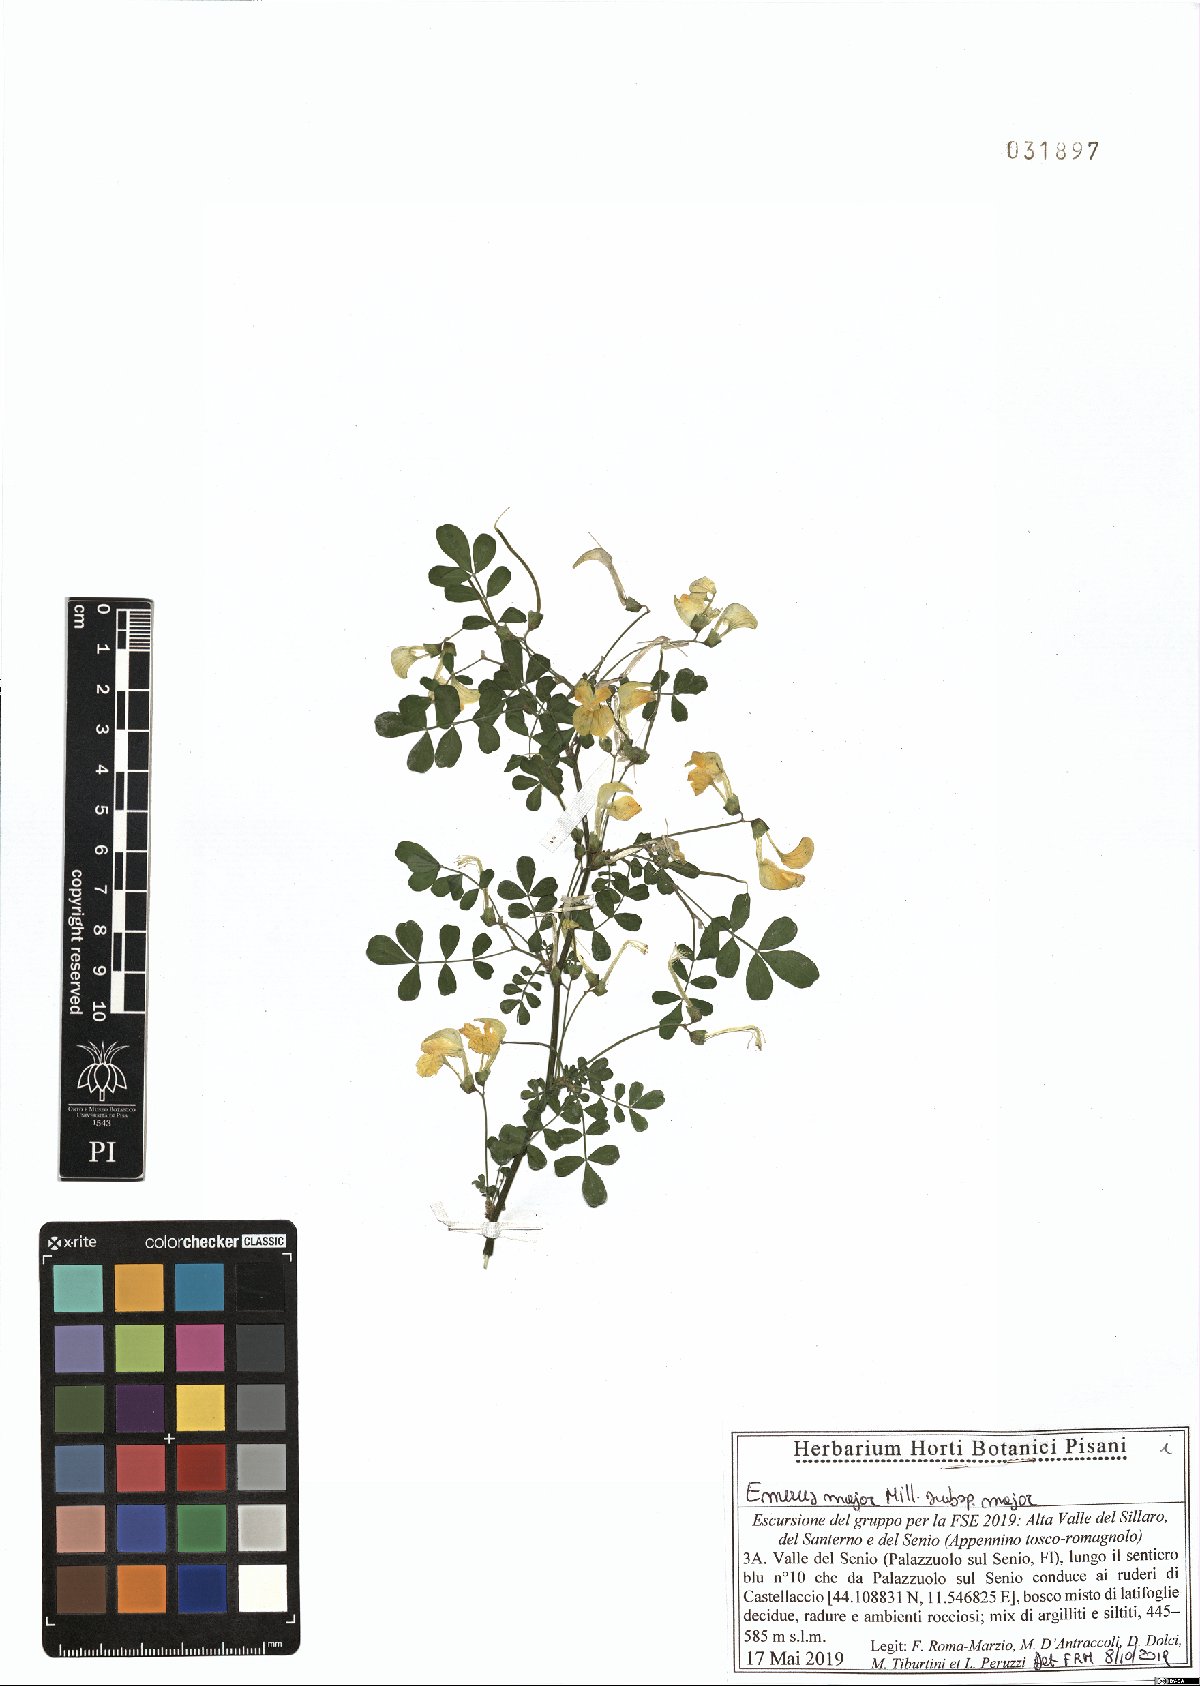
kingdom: Plantae
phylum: Tracheophyta
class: Magnoliopsida
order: Fabales
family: Fabaceae
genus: Hippocrepis
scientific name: Hippocrepis emerus
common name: Scorpion senna
